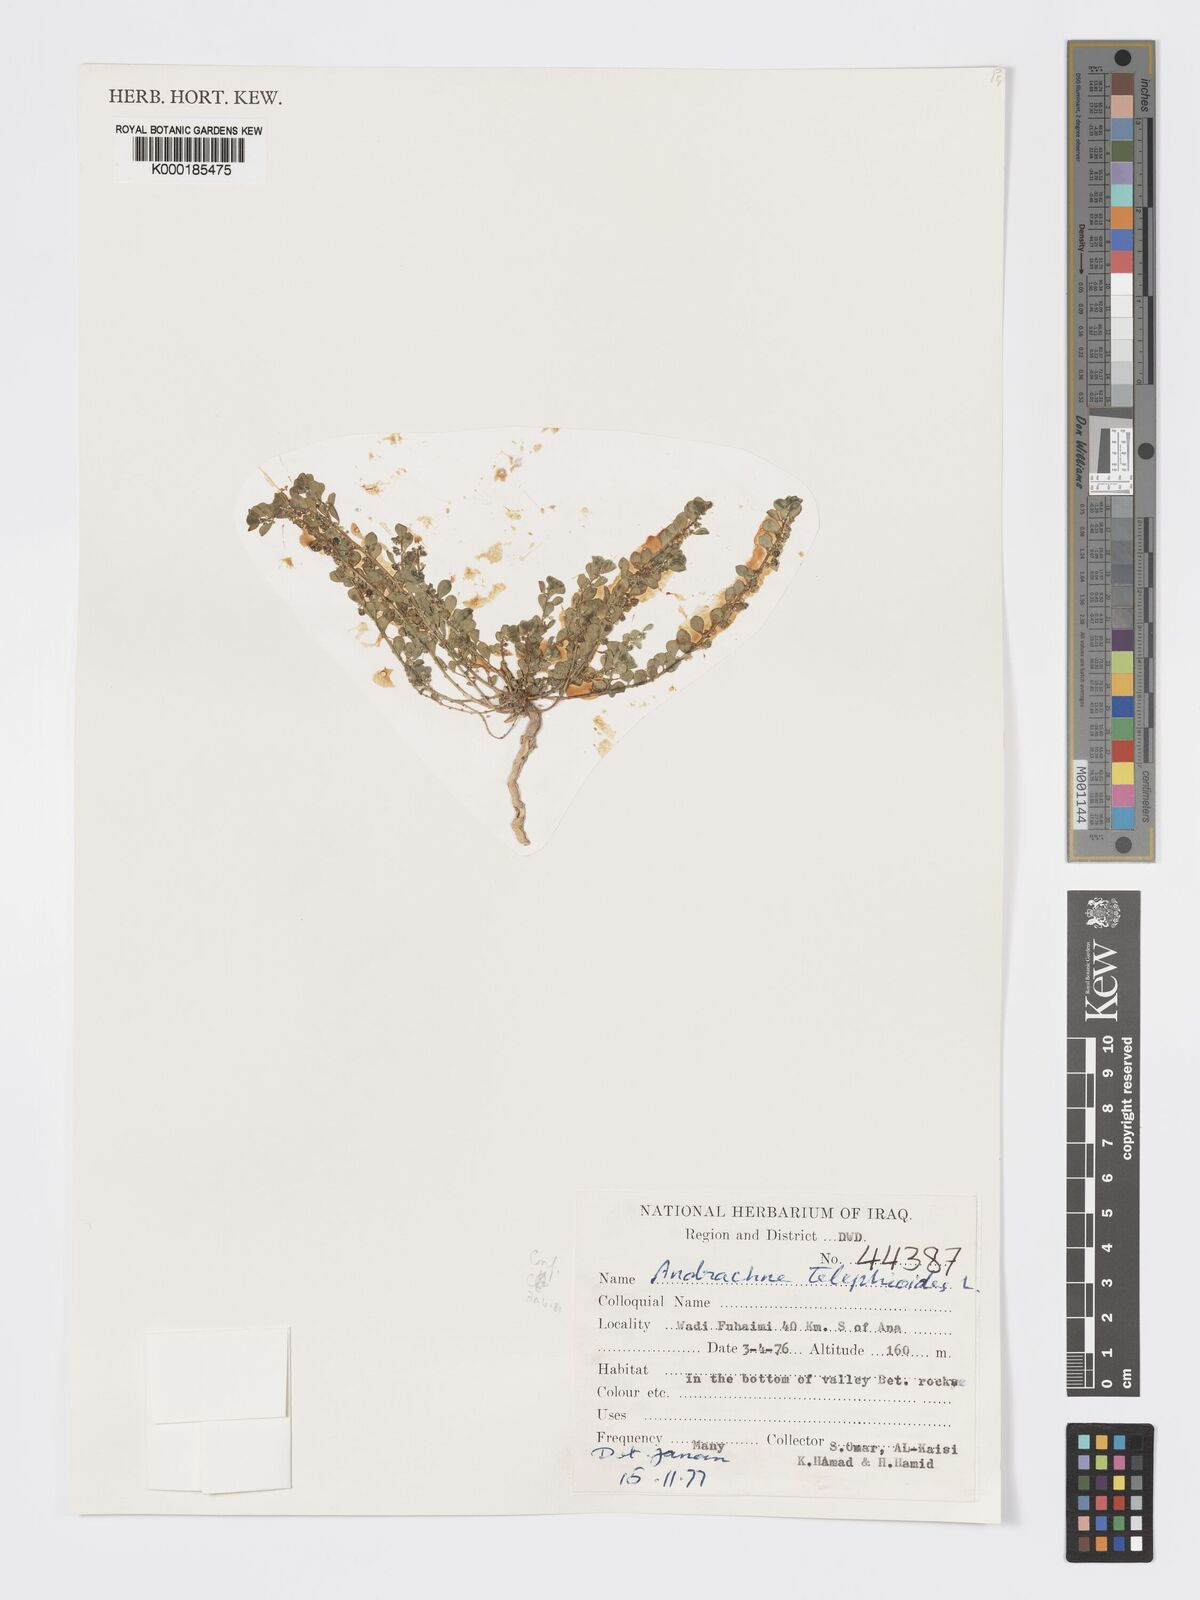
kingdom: Plantae
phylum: Tracheophyta
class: Magnoliopsida
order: Malpighiales
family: Phyllanthaceae
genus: Andrachne
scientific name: Andrachne telephioides
